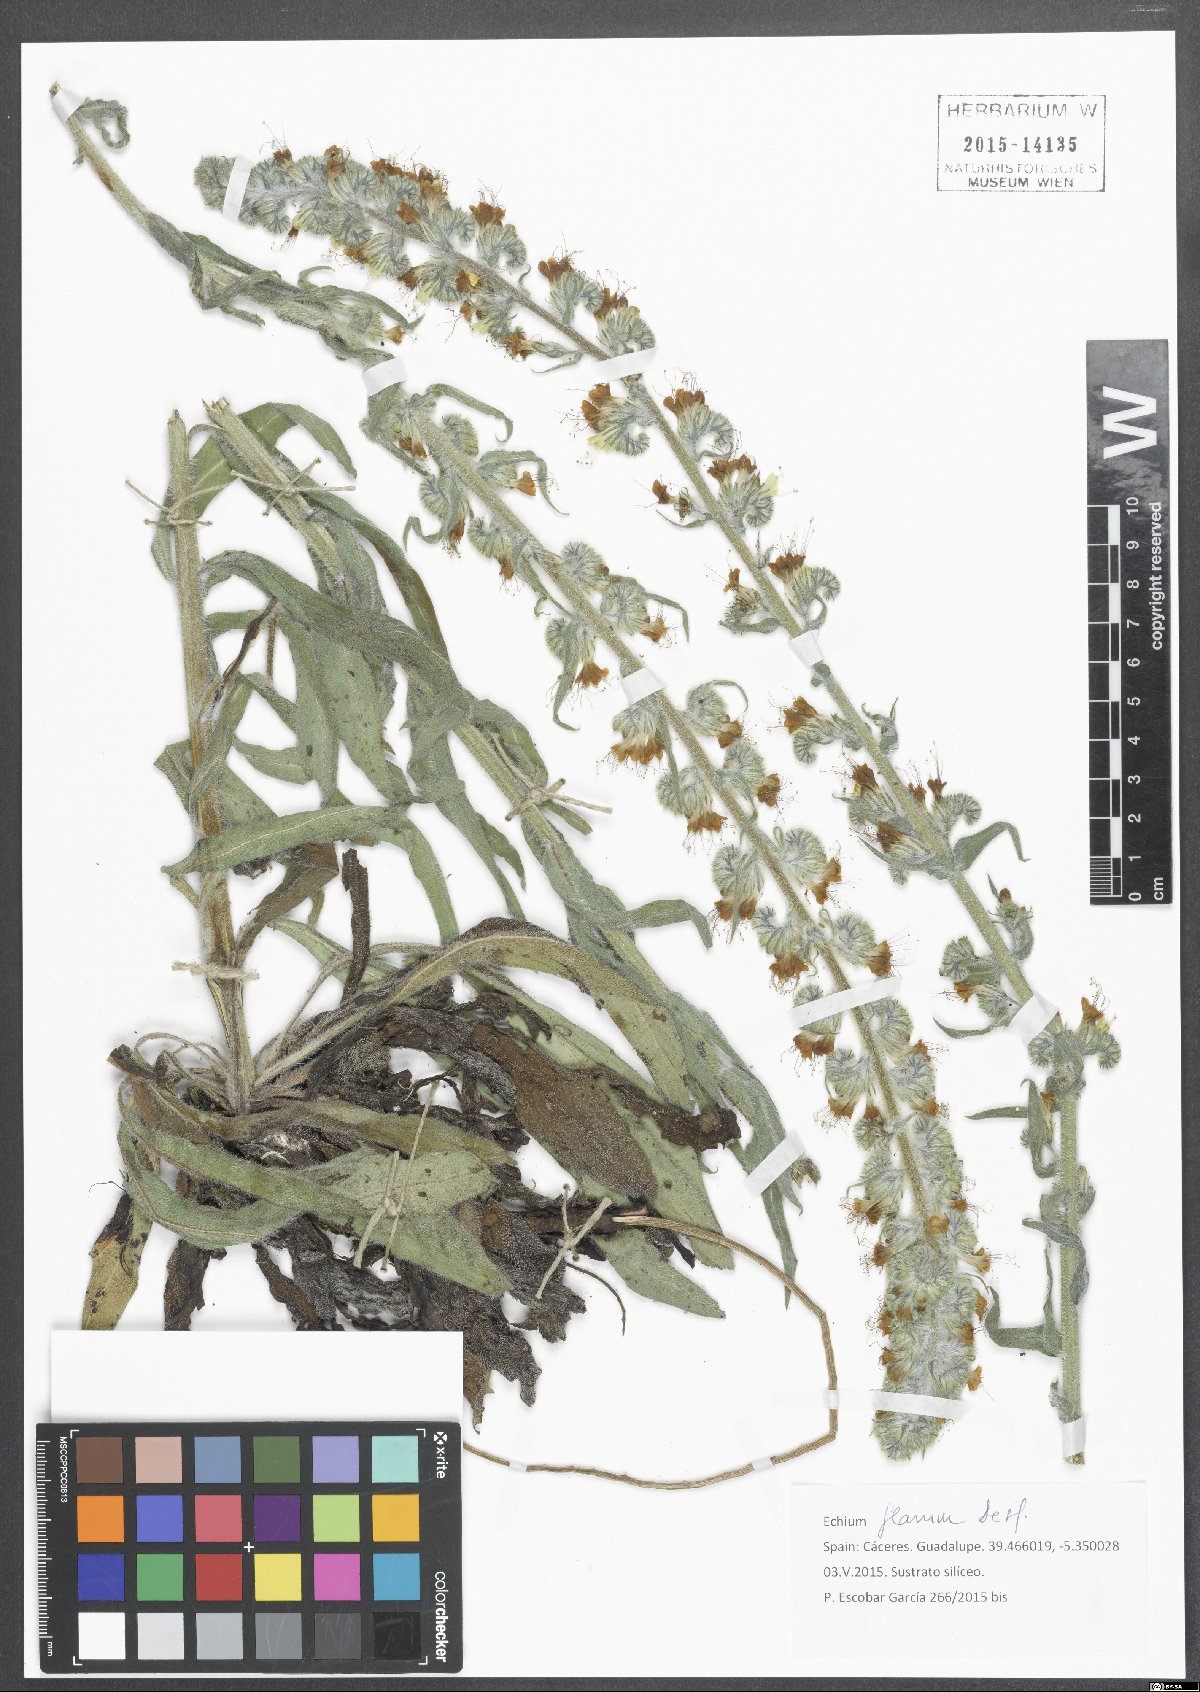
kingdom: Plantae
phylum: Tracheophyta
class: Magnoliopsida
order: Boraginales
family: Boraginaceae
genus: Echium
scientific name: Echium flavum
